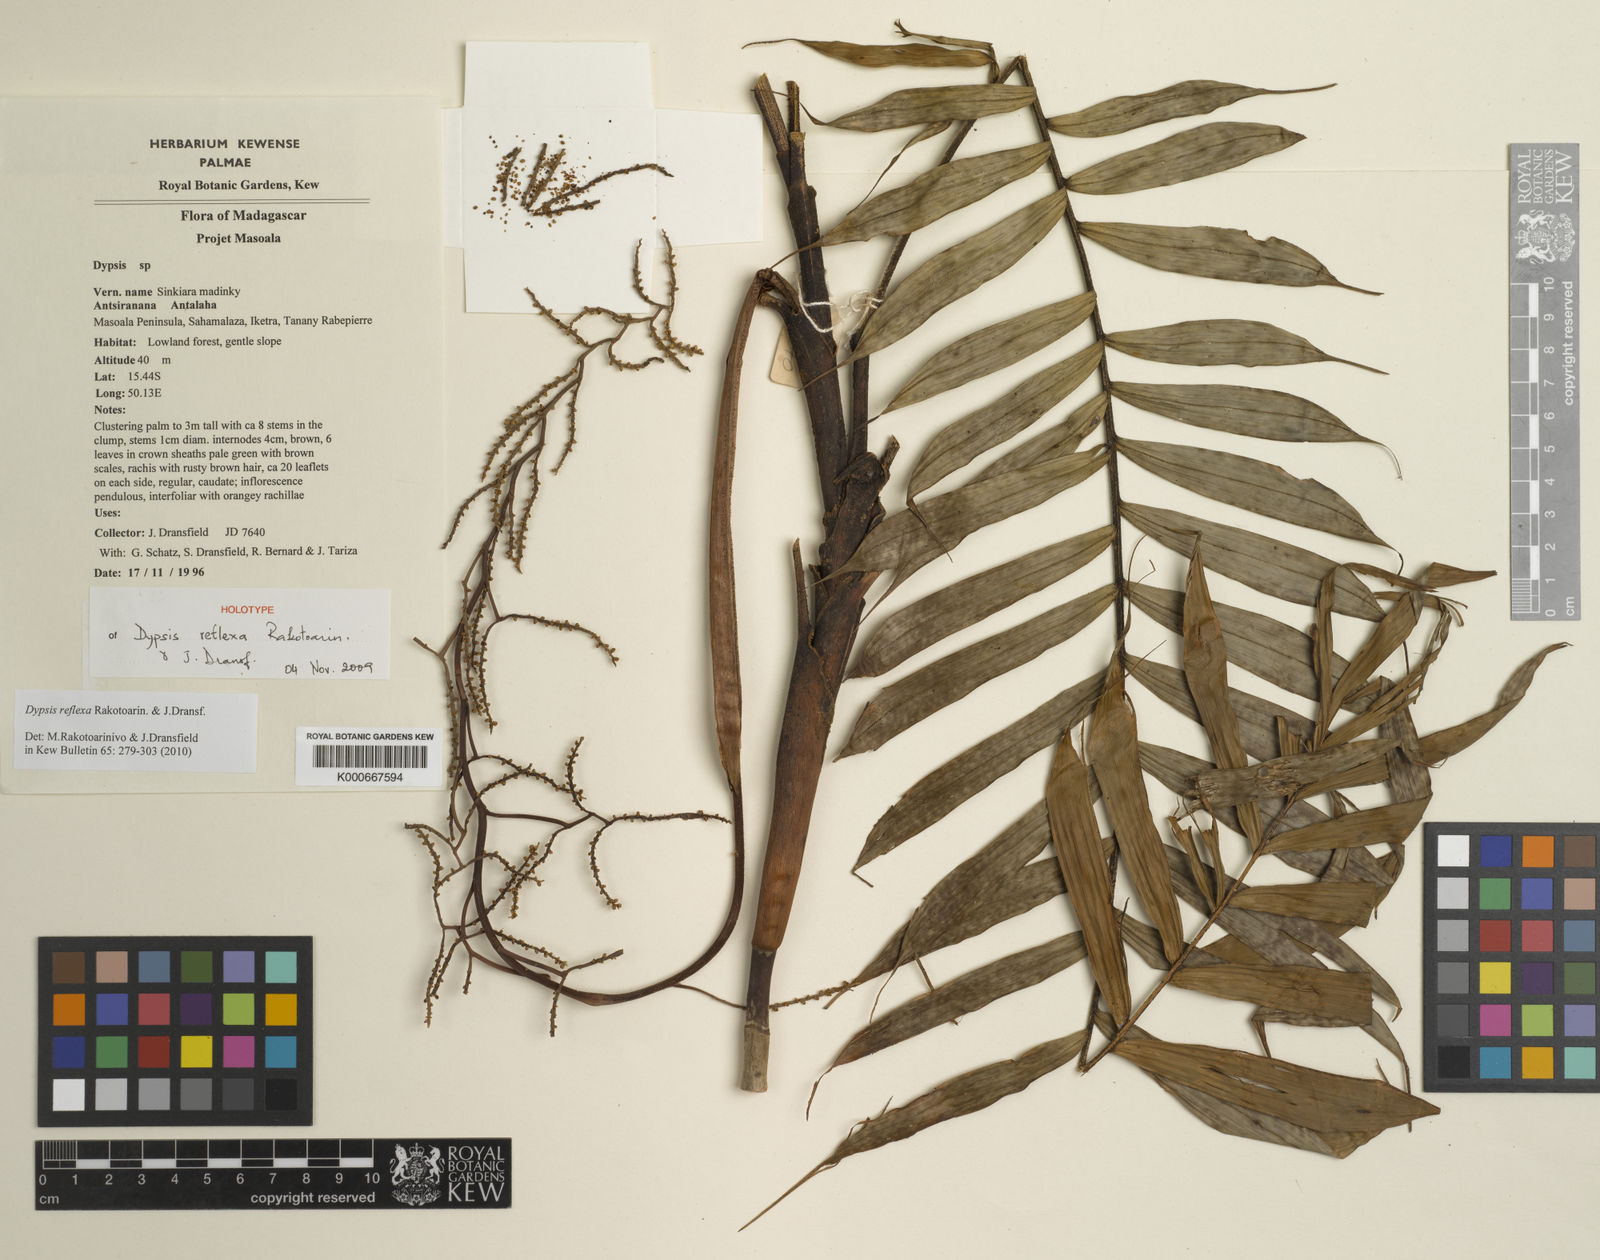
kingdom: Plantae
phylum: Tracheophyta
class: Liliopsida
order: Arecales
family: Arecaceae
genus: Dypsis
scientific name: Dypsis reflexa
